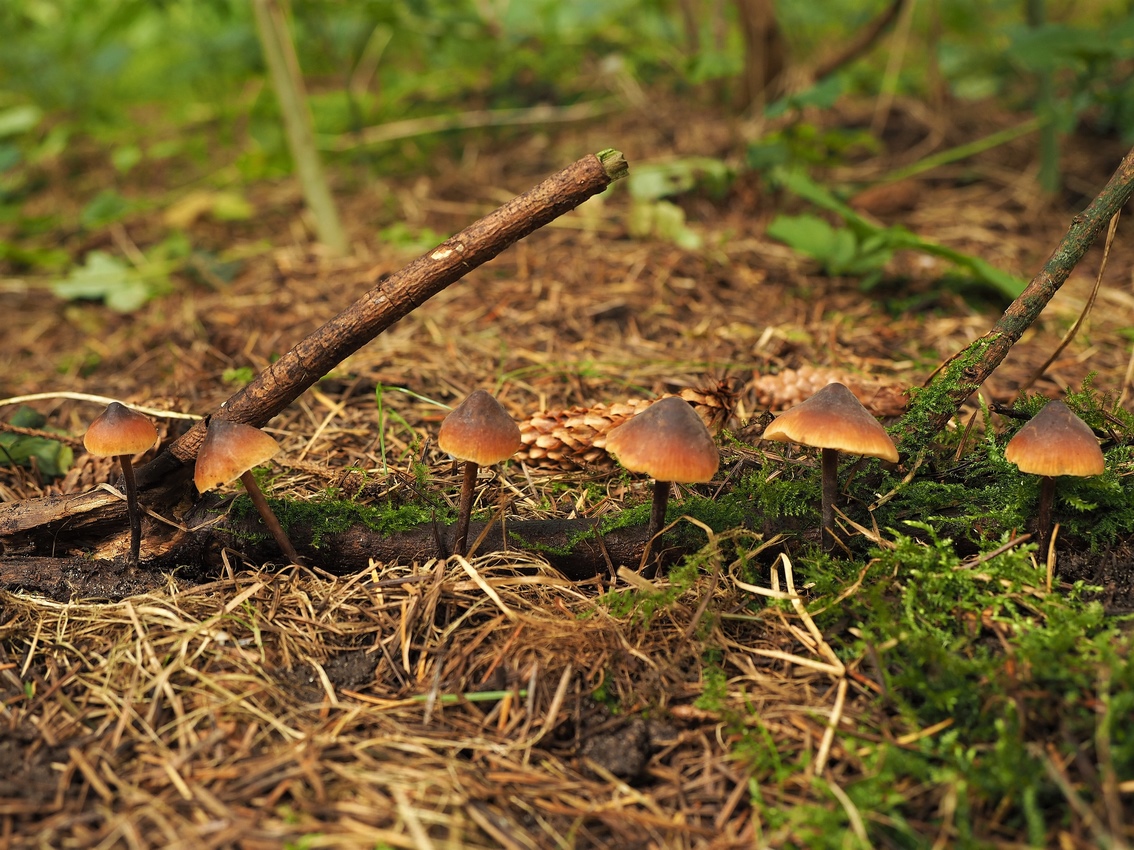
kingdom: Fungi
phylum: Basidiomycota
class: Agaricomycetes
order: Agaricales
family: Macrocystidiaceae
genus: Macrocystidia
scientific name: Macrocystidia cucumis
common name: agurkehat
